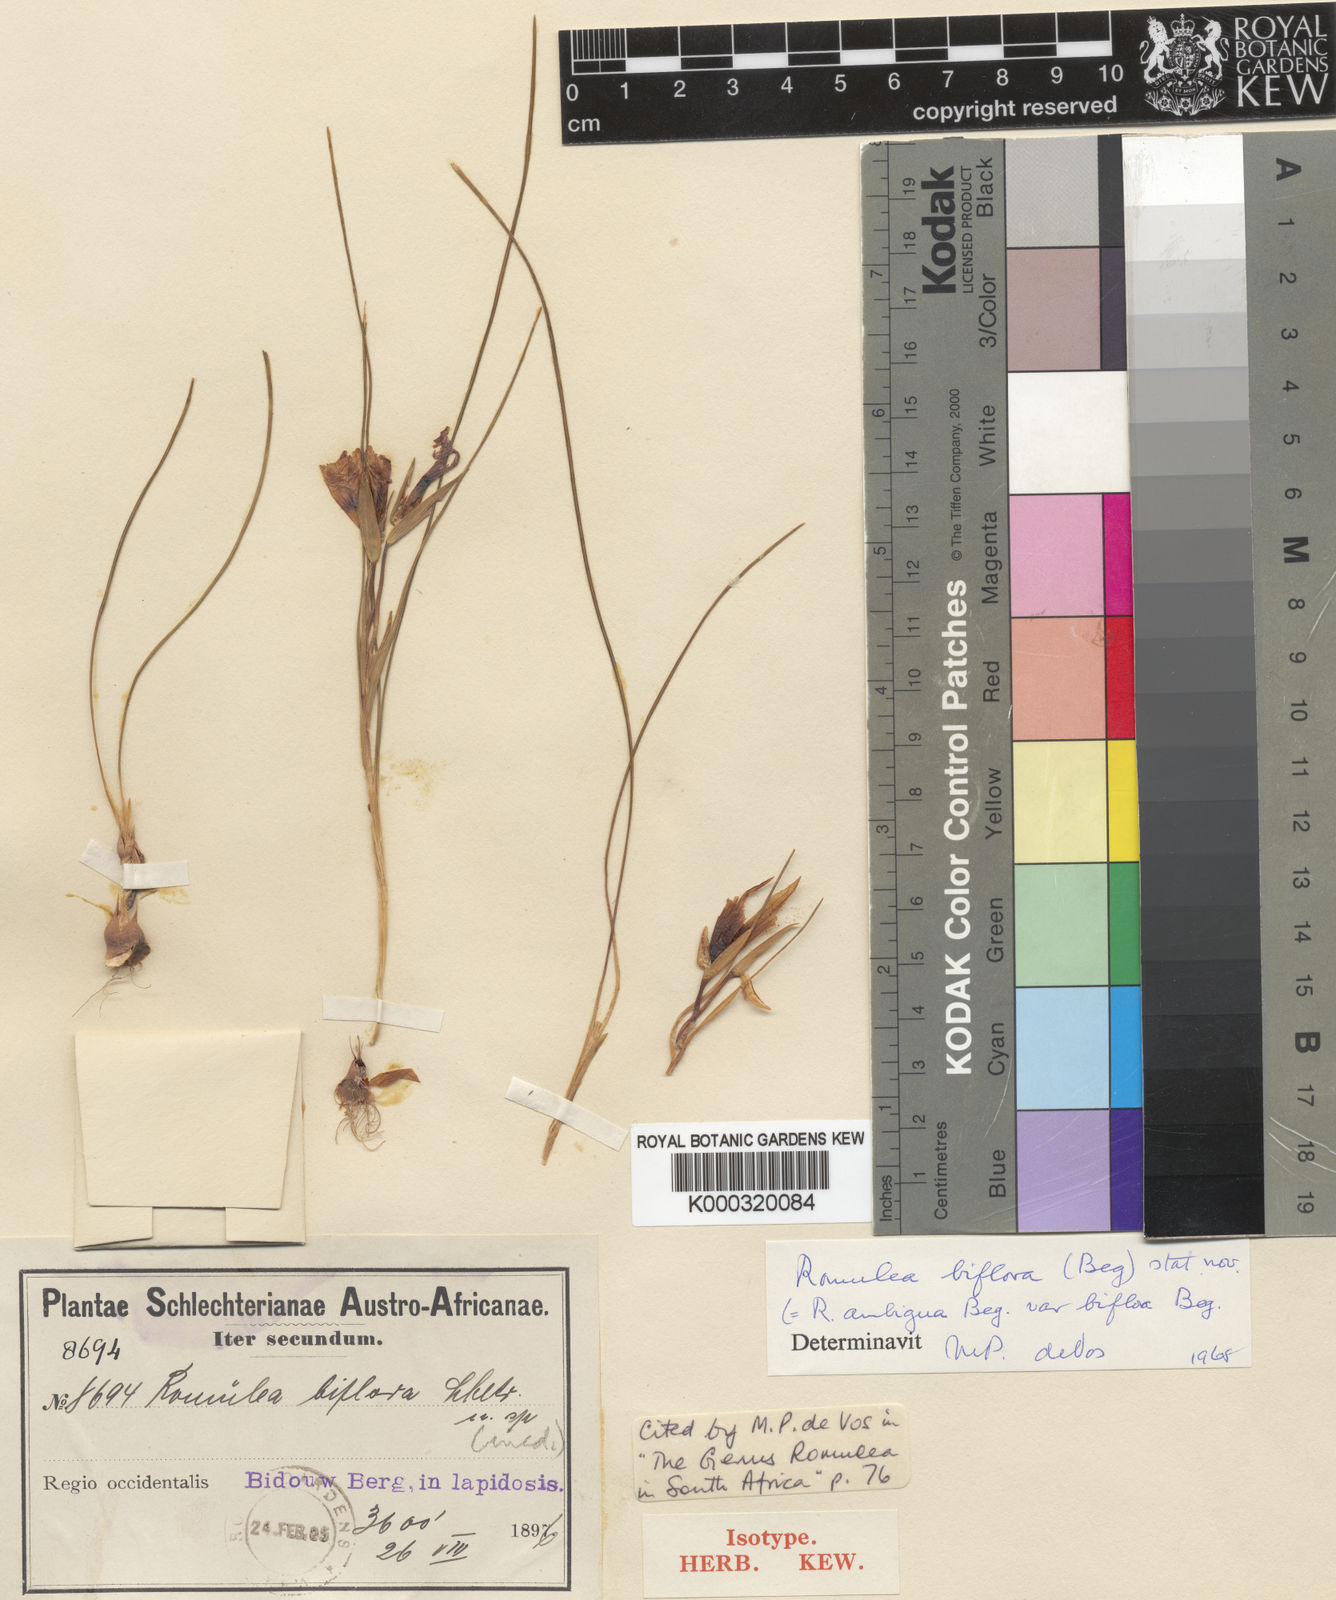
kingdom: Plantae
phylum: Tracheophyta
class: Liliopsida
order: Asparagales
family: Iridaceae
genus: Romulea
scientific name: Romulea biflora
